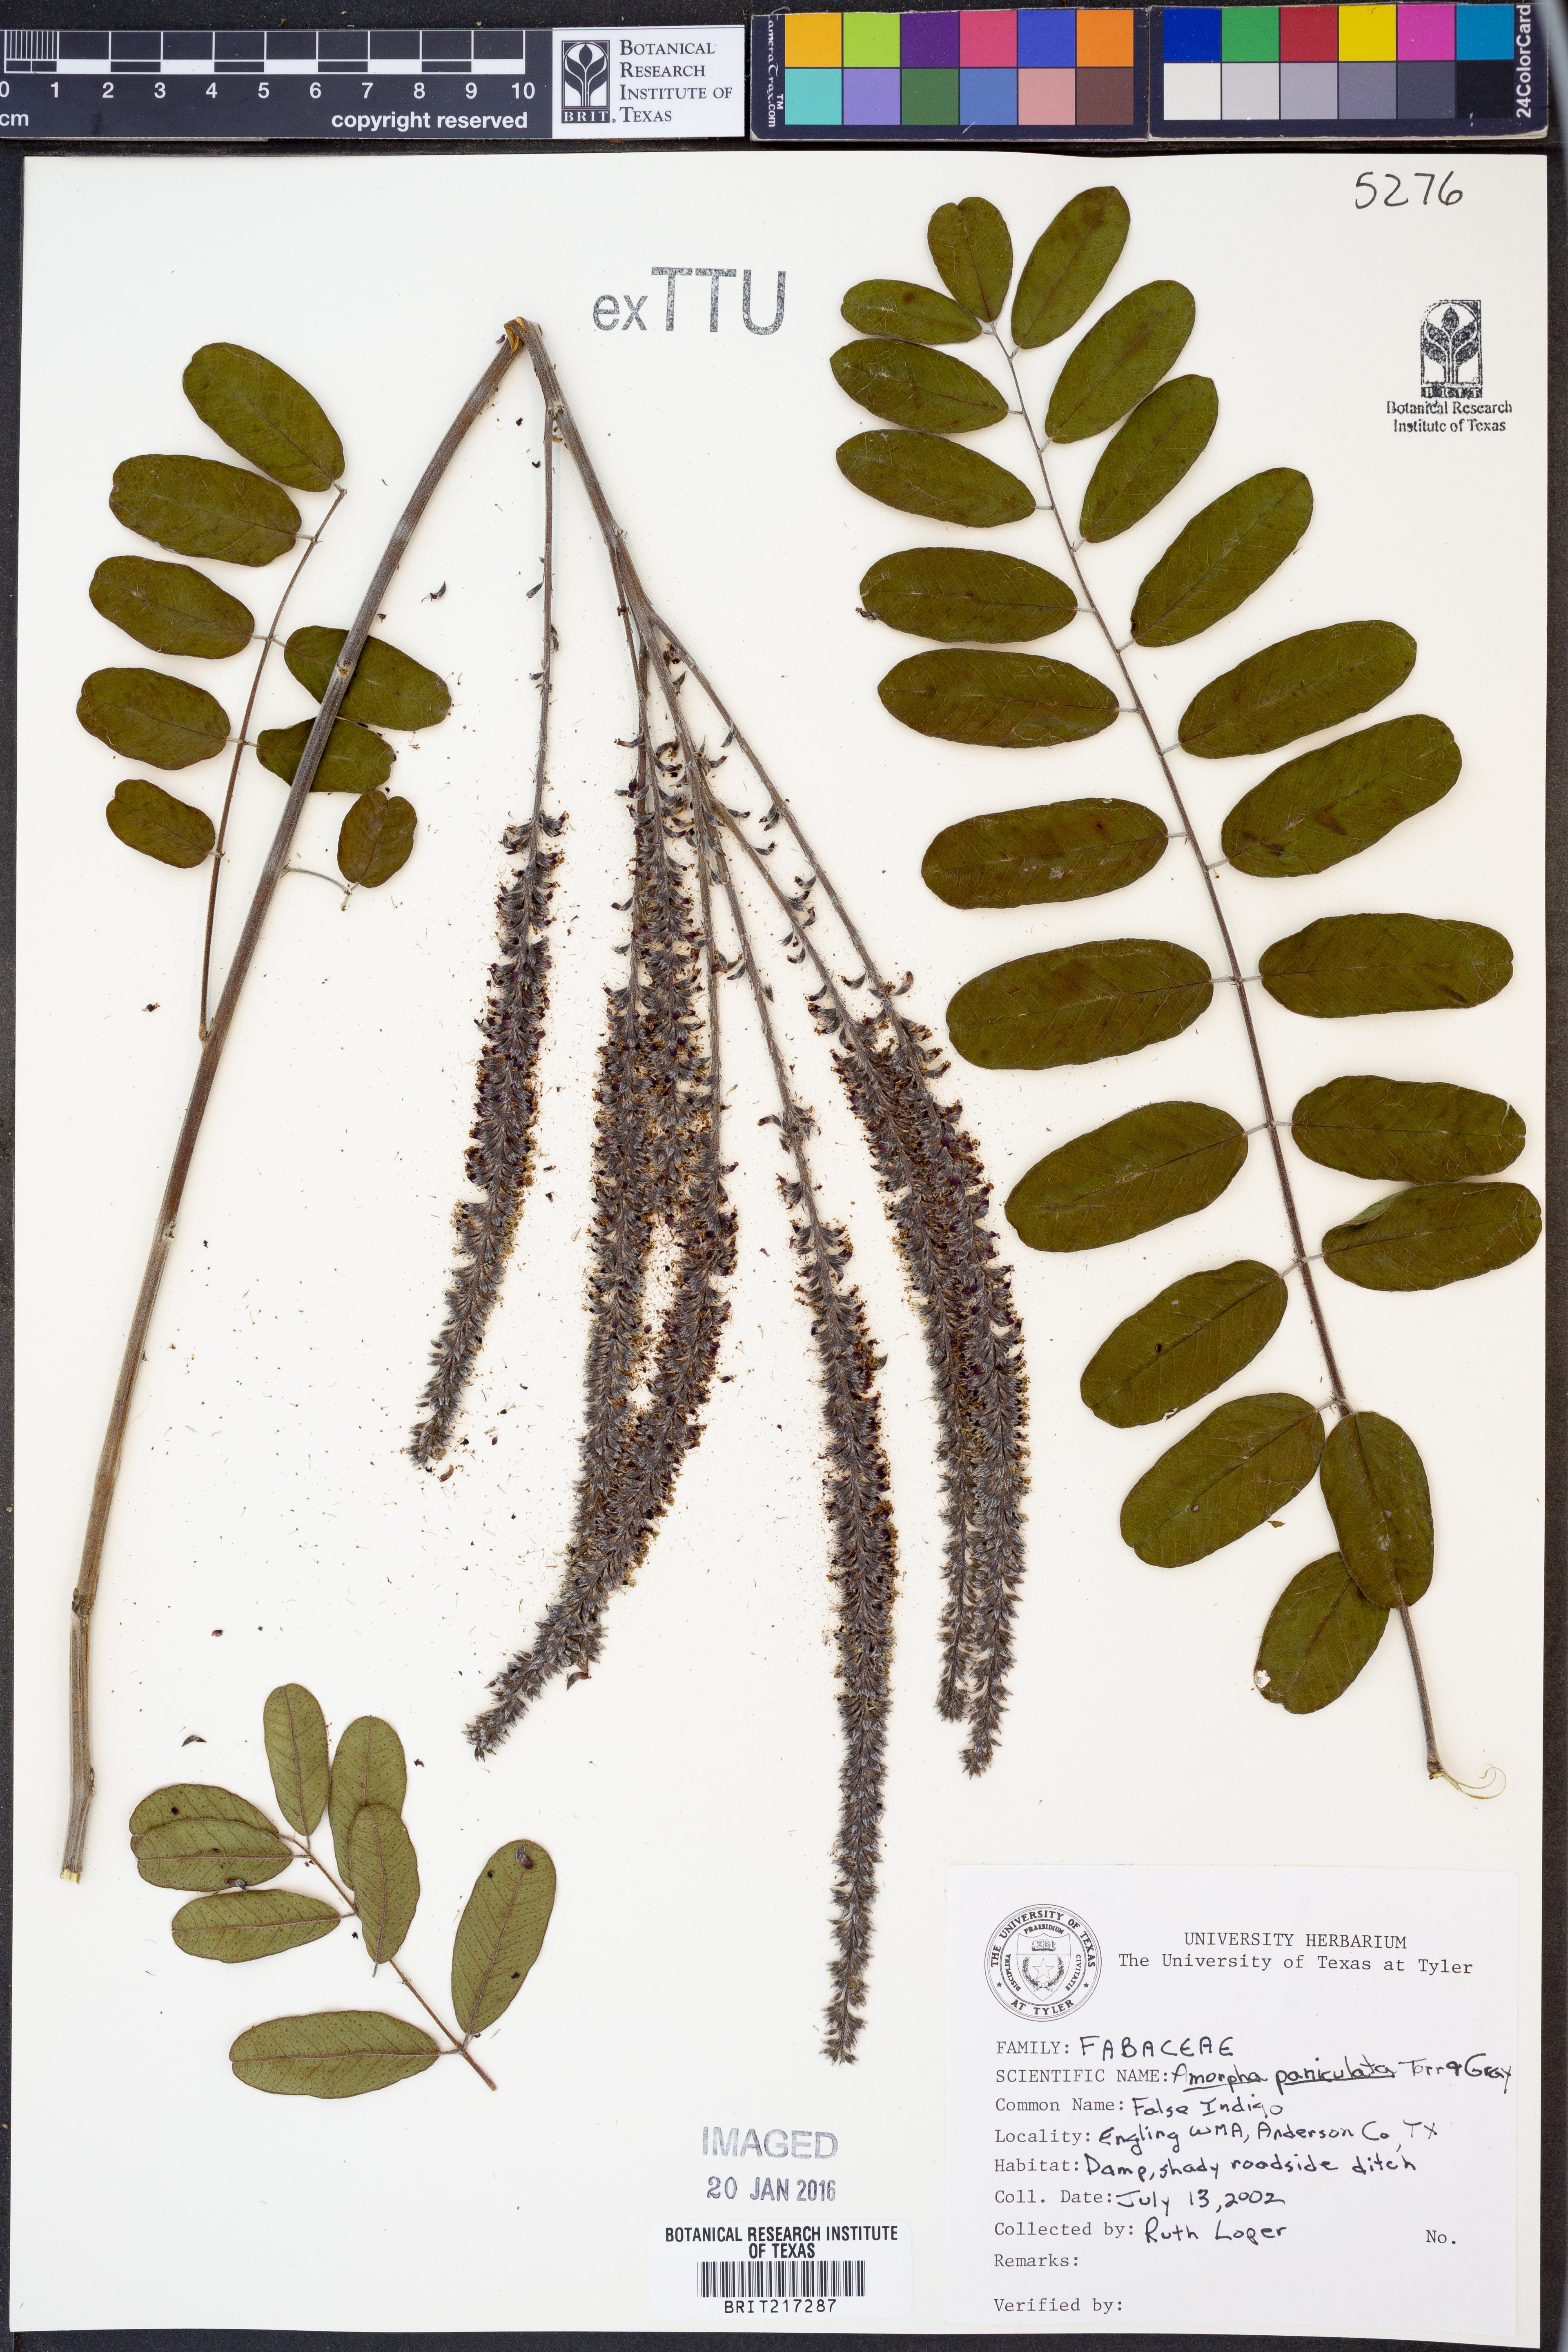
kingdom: Plantae
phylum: Tracheophyta
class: Magnoliopsida
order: Fabales
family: Fabaceae
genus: Amorpha
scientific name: Amorpha paniculata
